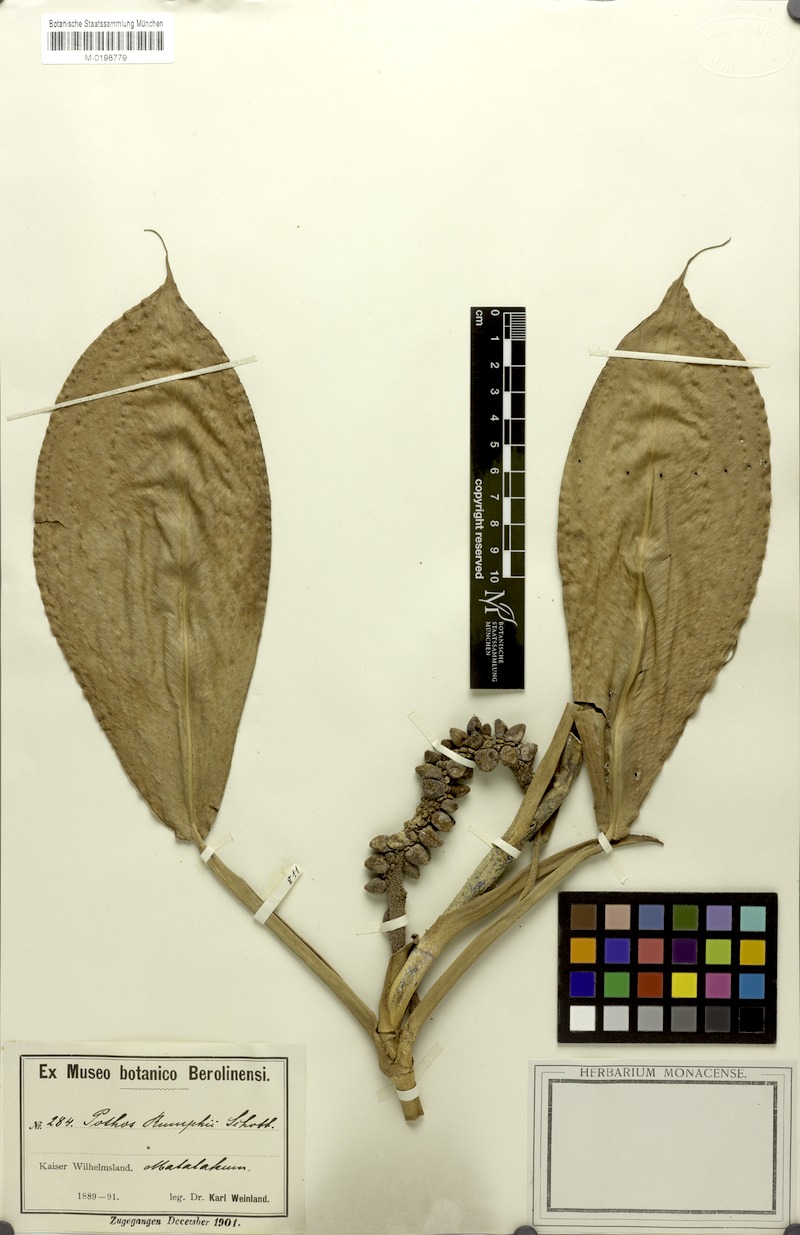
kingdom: Plantae
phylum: Tracheophyta
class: Liliopsida
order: Alismatales
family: Araceae
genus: Pothos
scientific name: Pothos tener
